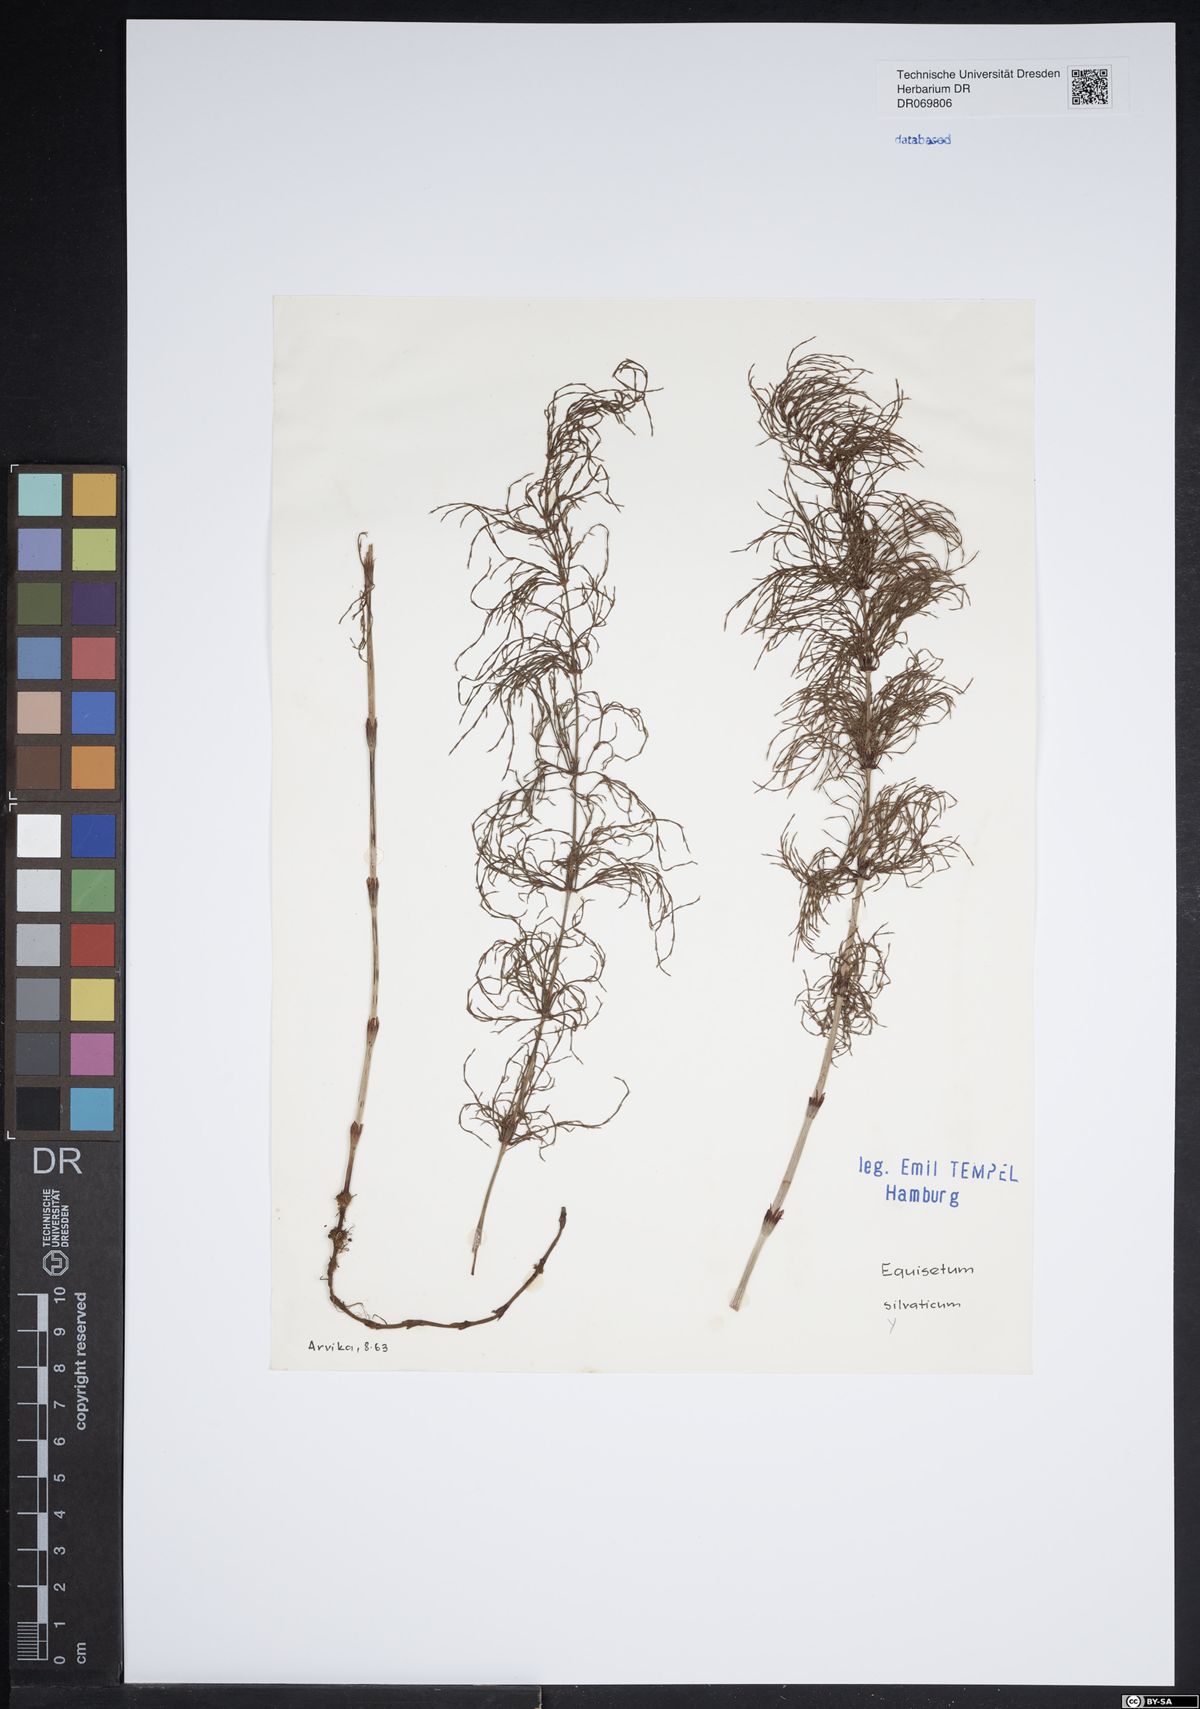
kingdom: Plantae
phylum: Tracheophyta
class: Polypodiopsida
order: Equisetales
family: Equisetaceae
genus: Equisetum
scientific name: Equisetum sylvaticum
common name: Wood horsetail
